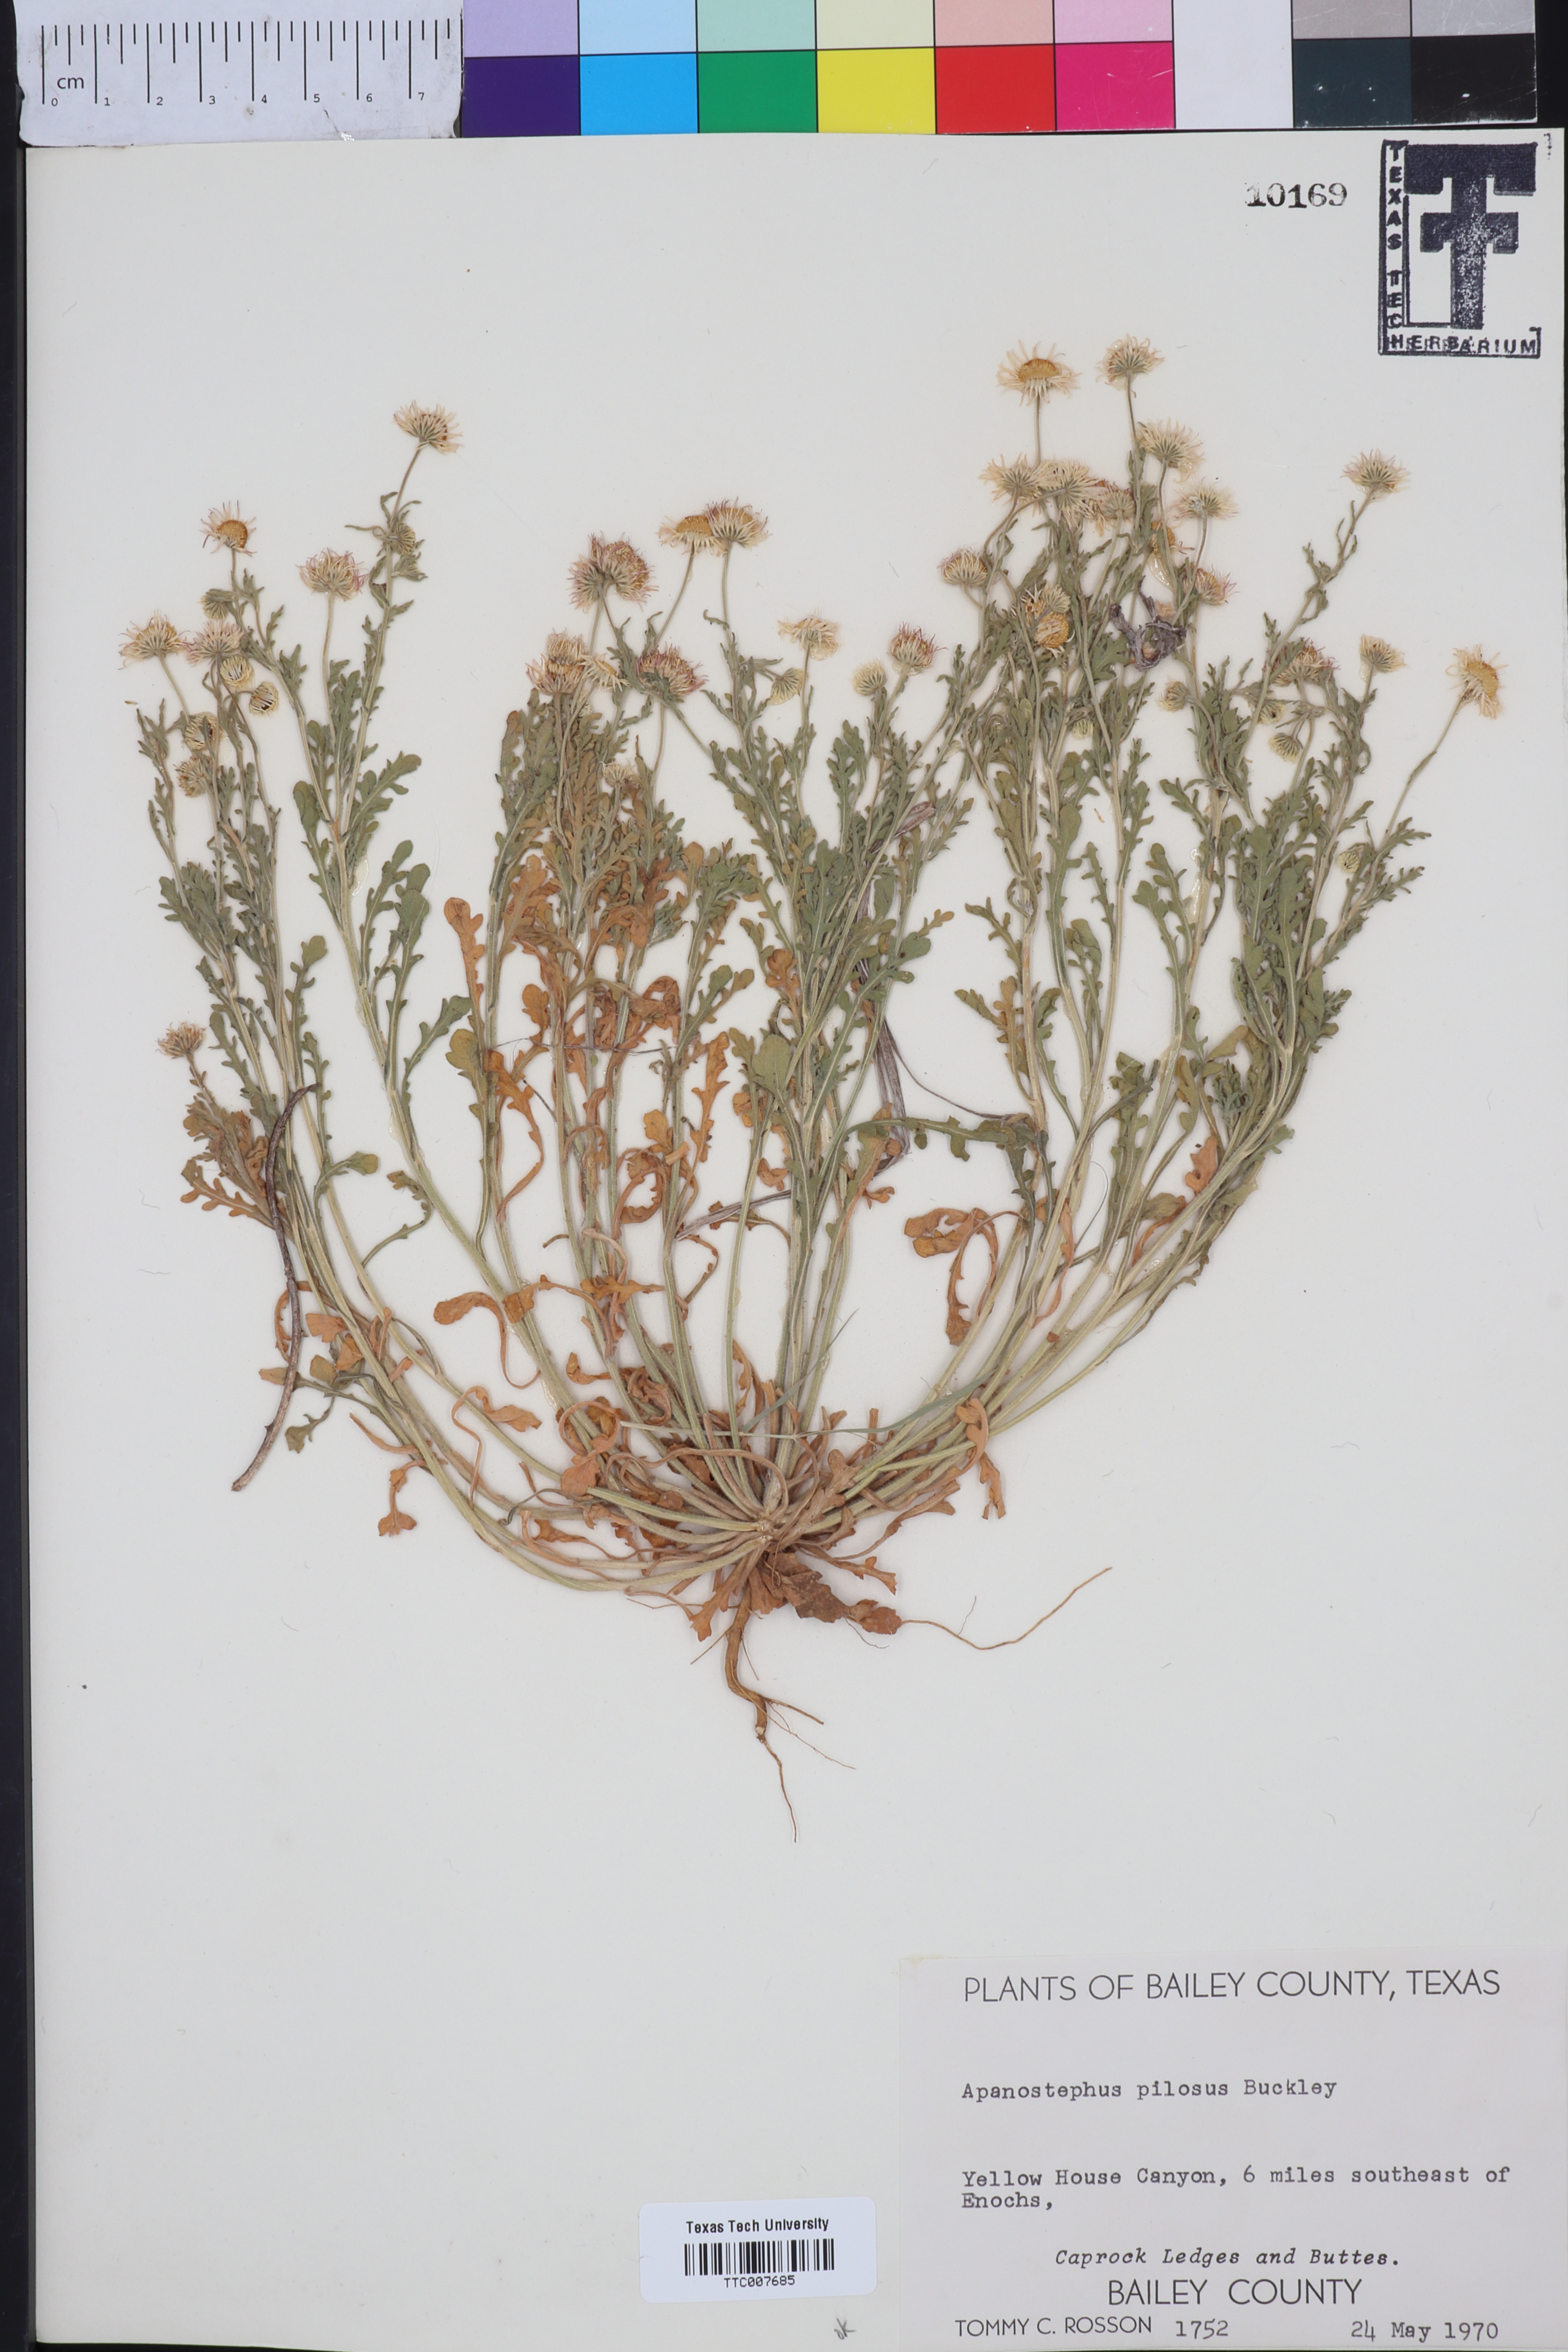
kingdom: Plantae
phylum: Tracheophyta
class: Magnoliopsida
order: Asterales
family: Asteraceae
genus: Aphanostephus
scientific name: Aphanostephus pilosus
